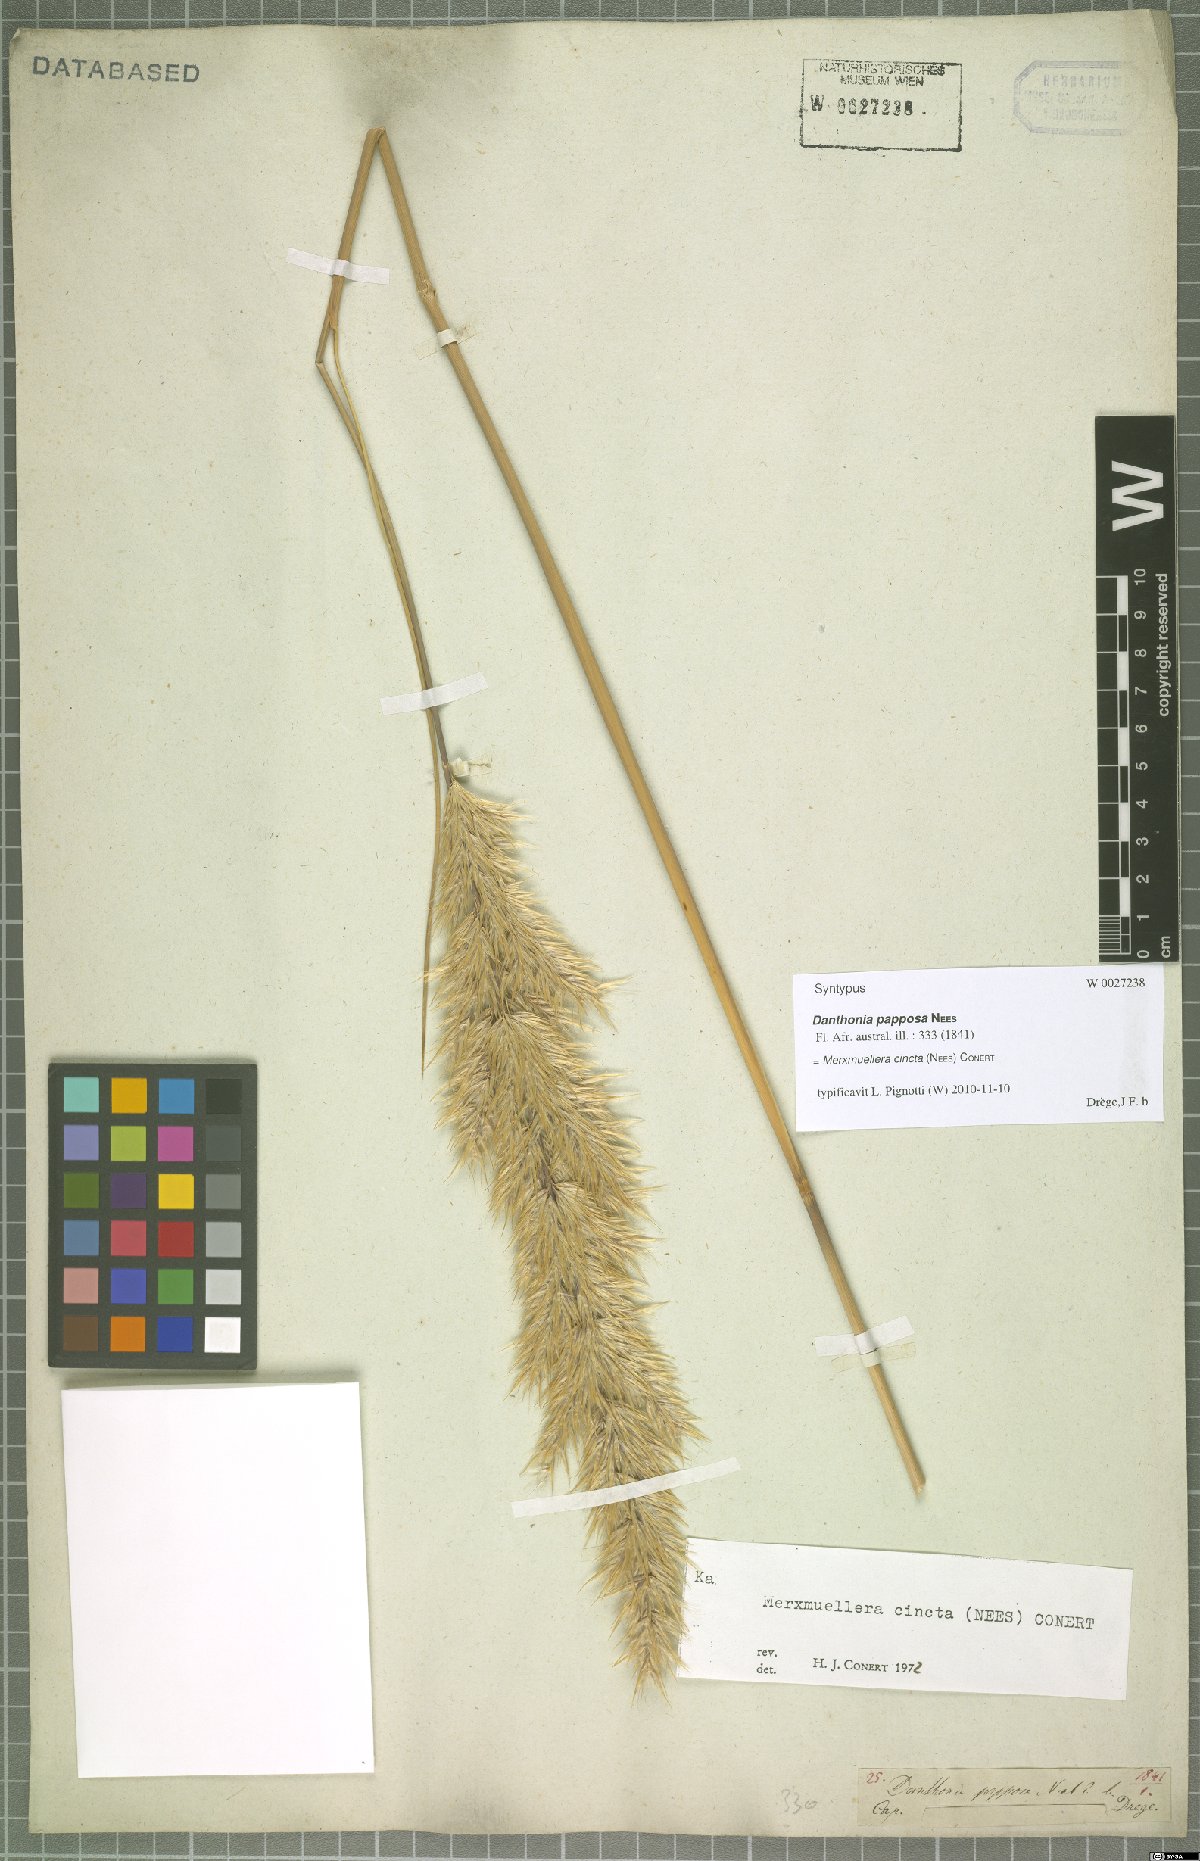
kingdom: Plantae
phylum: Tracheophyta
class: Liliopsida
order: Poales
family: Poaceae
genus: Capeochloa
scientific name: Capeochloa cincta
